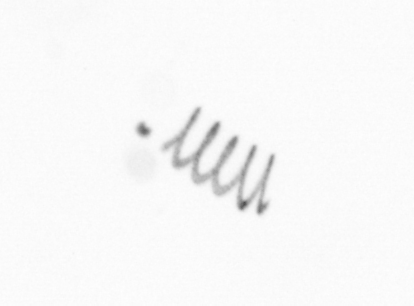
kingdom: Chromista
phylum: Ochrophyta
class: Bacillariophyceae
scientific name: Bacillariophyceae
